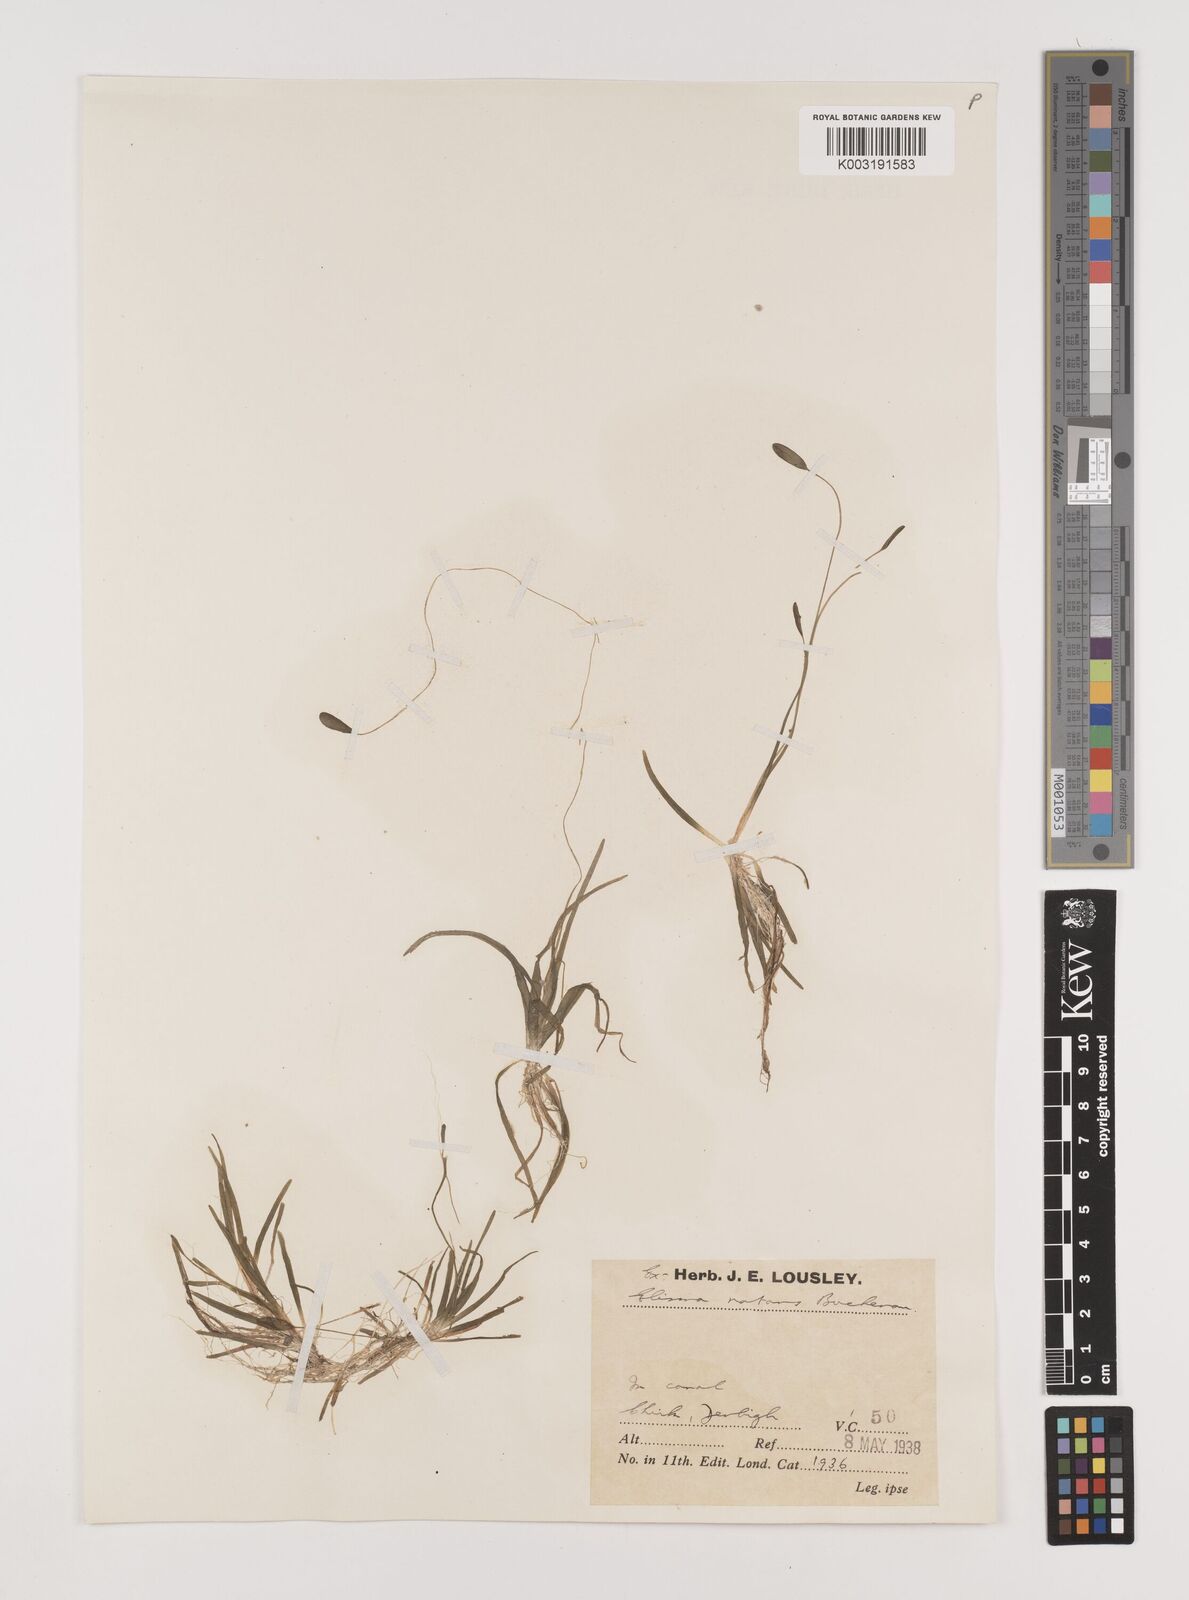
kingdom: Plantae
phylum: Tracheophyta
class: Liliopsida
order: Alismatales
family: Alismataceae
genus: Luronium
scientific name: Luronium natans
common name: Floating water-plantain
